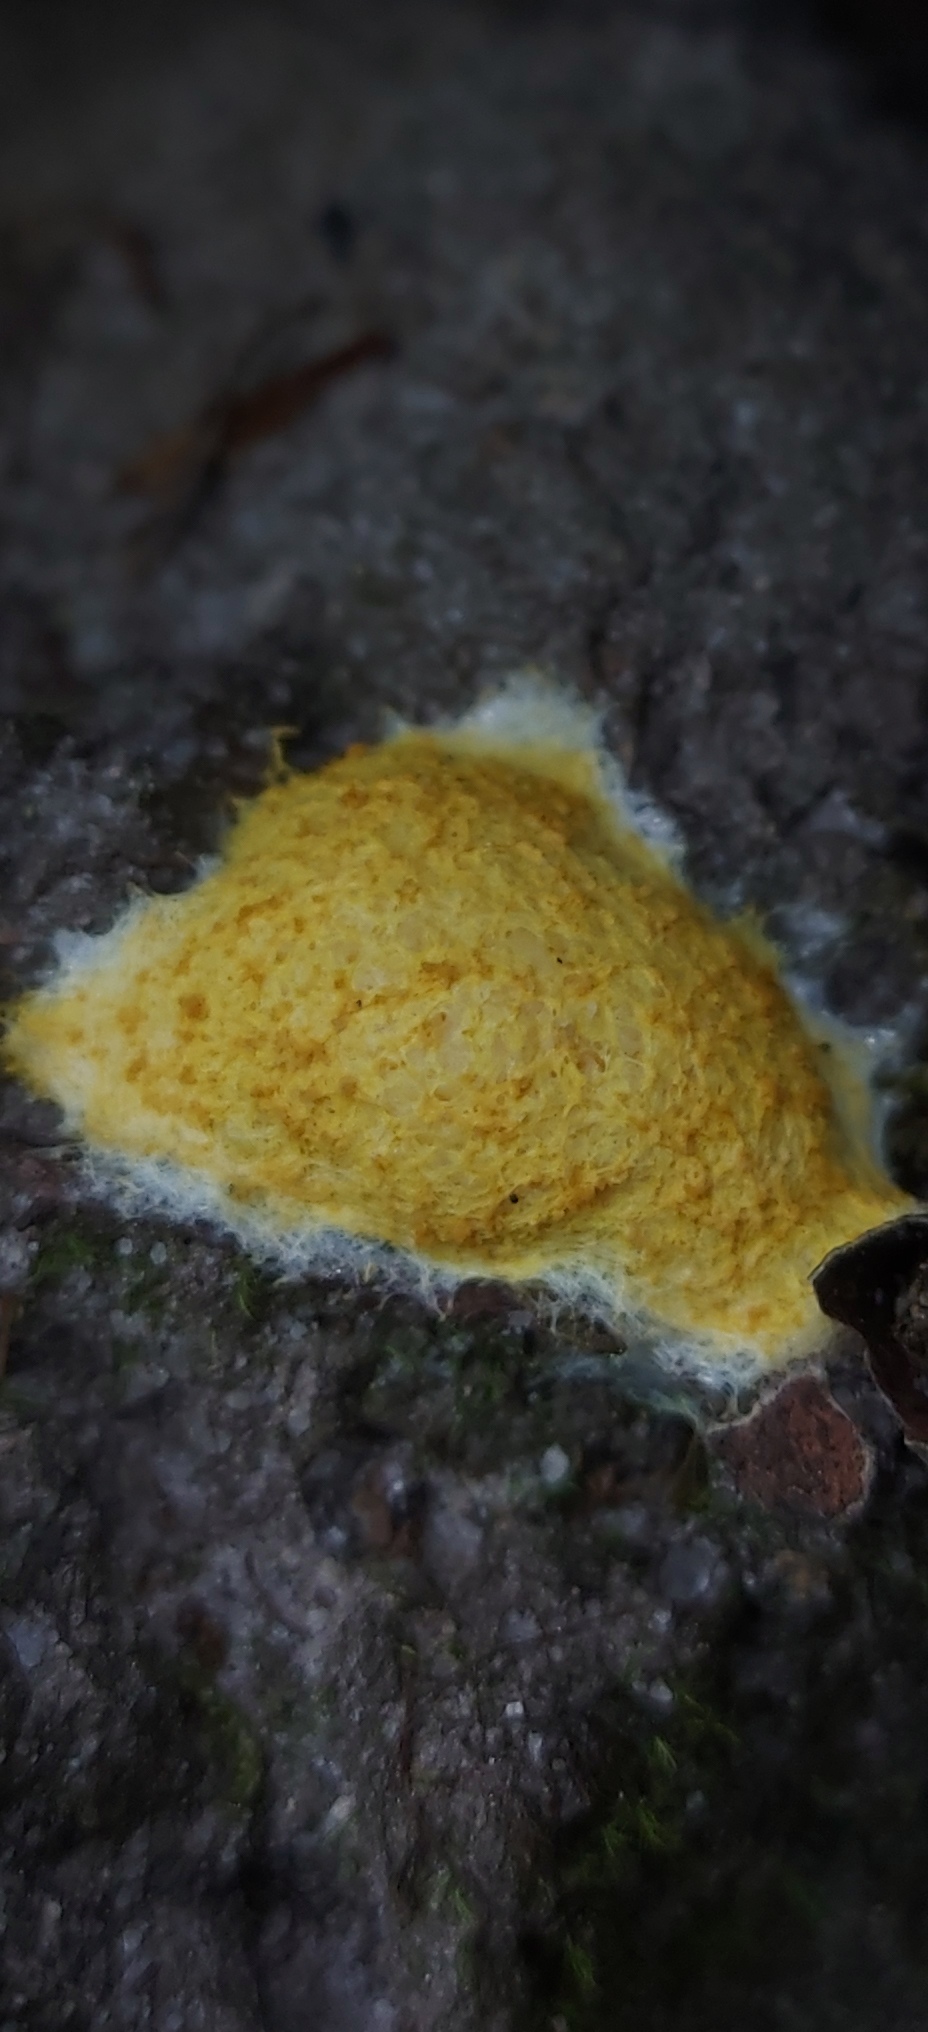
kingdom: Protozoa
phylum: Mycetozoa
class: Myxomycetes
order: Physarales
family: Physaraceae
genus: Fuligo
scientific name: Fuligo septica
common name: gul troldsmør
